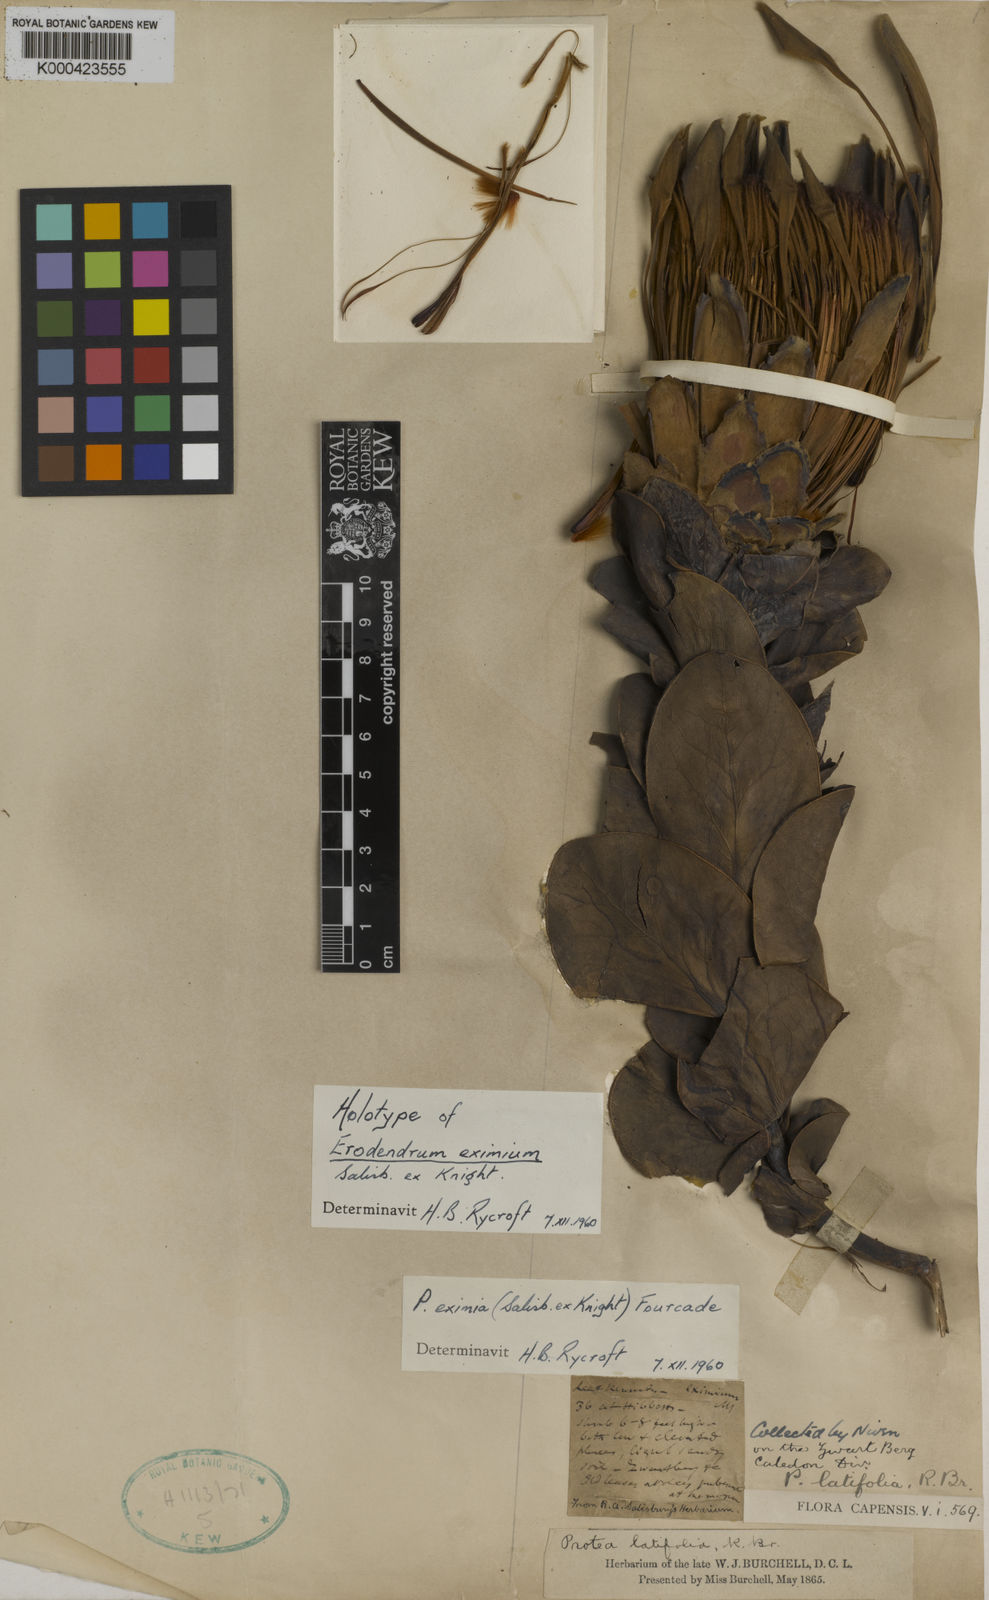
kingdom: Plantae
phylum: Tracheophyta
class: Magnoliopsida
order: Proteales
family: Proteaceae
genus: Protea
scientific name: Protea eximia
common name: Broad-leaved sugarbush
